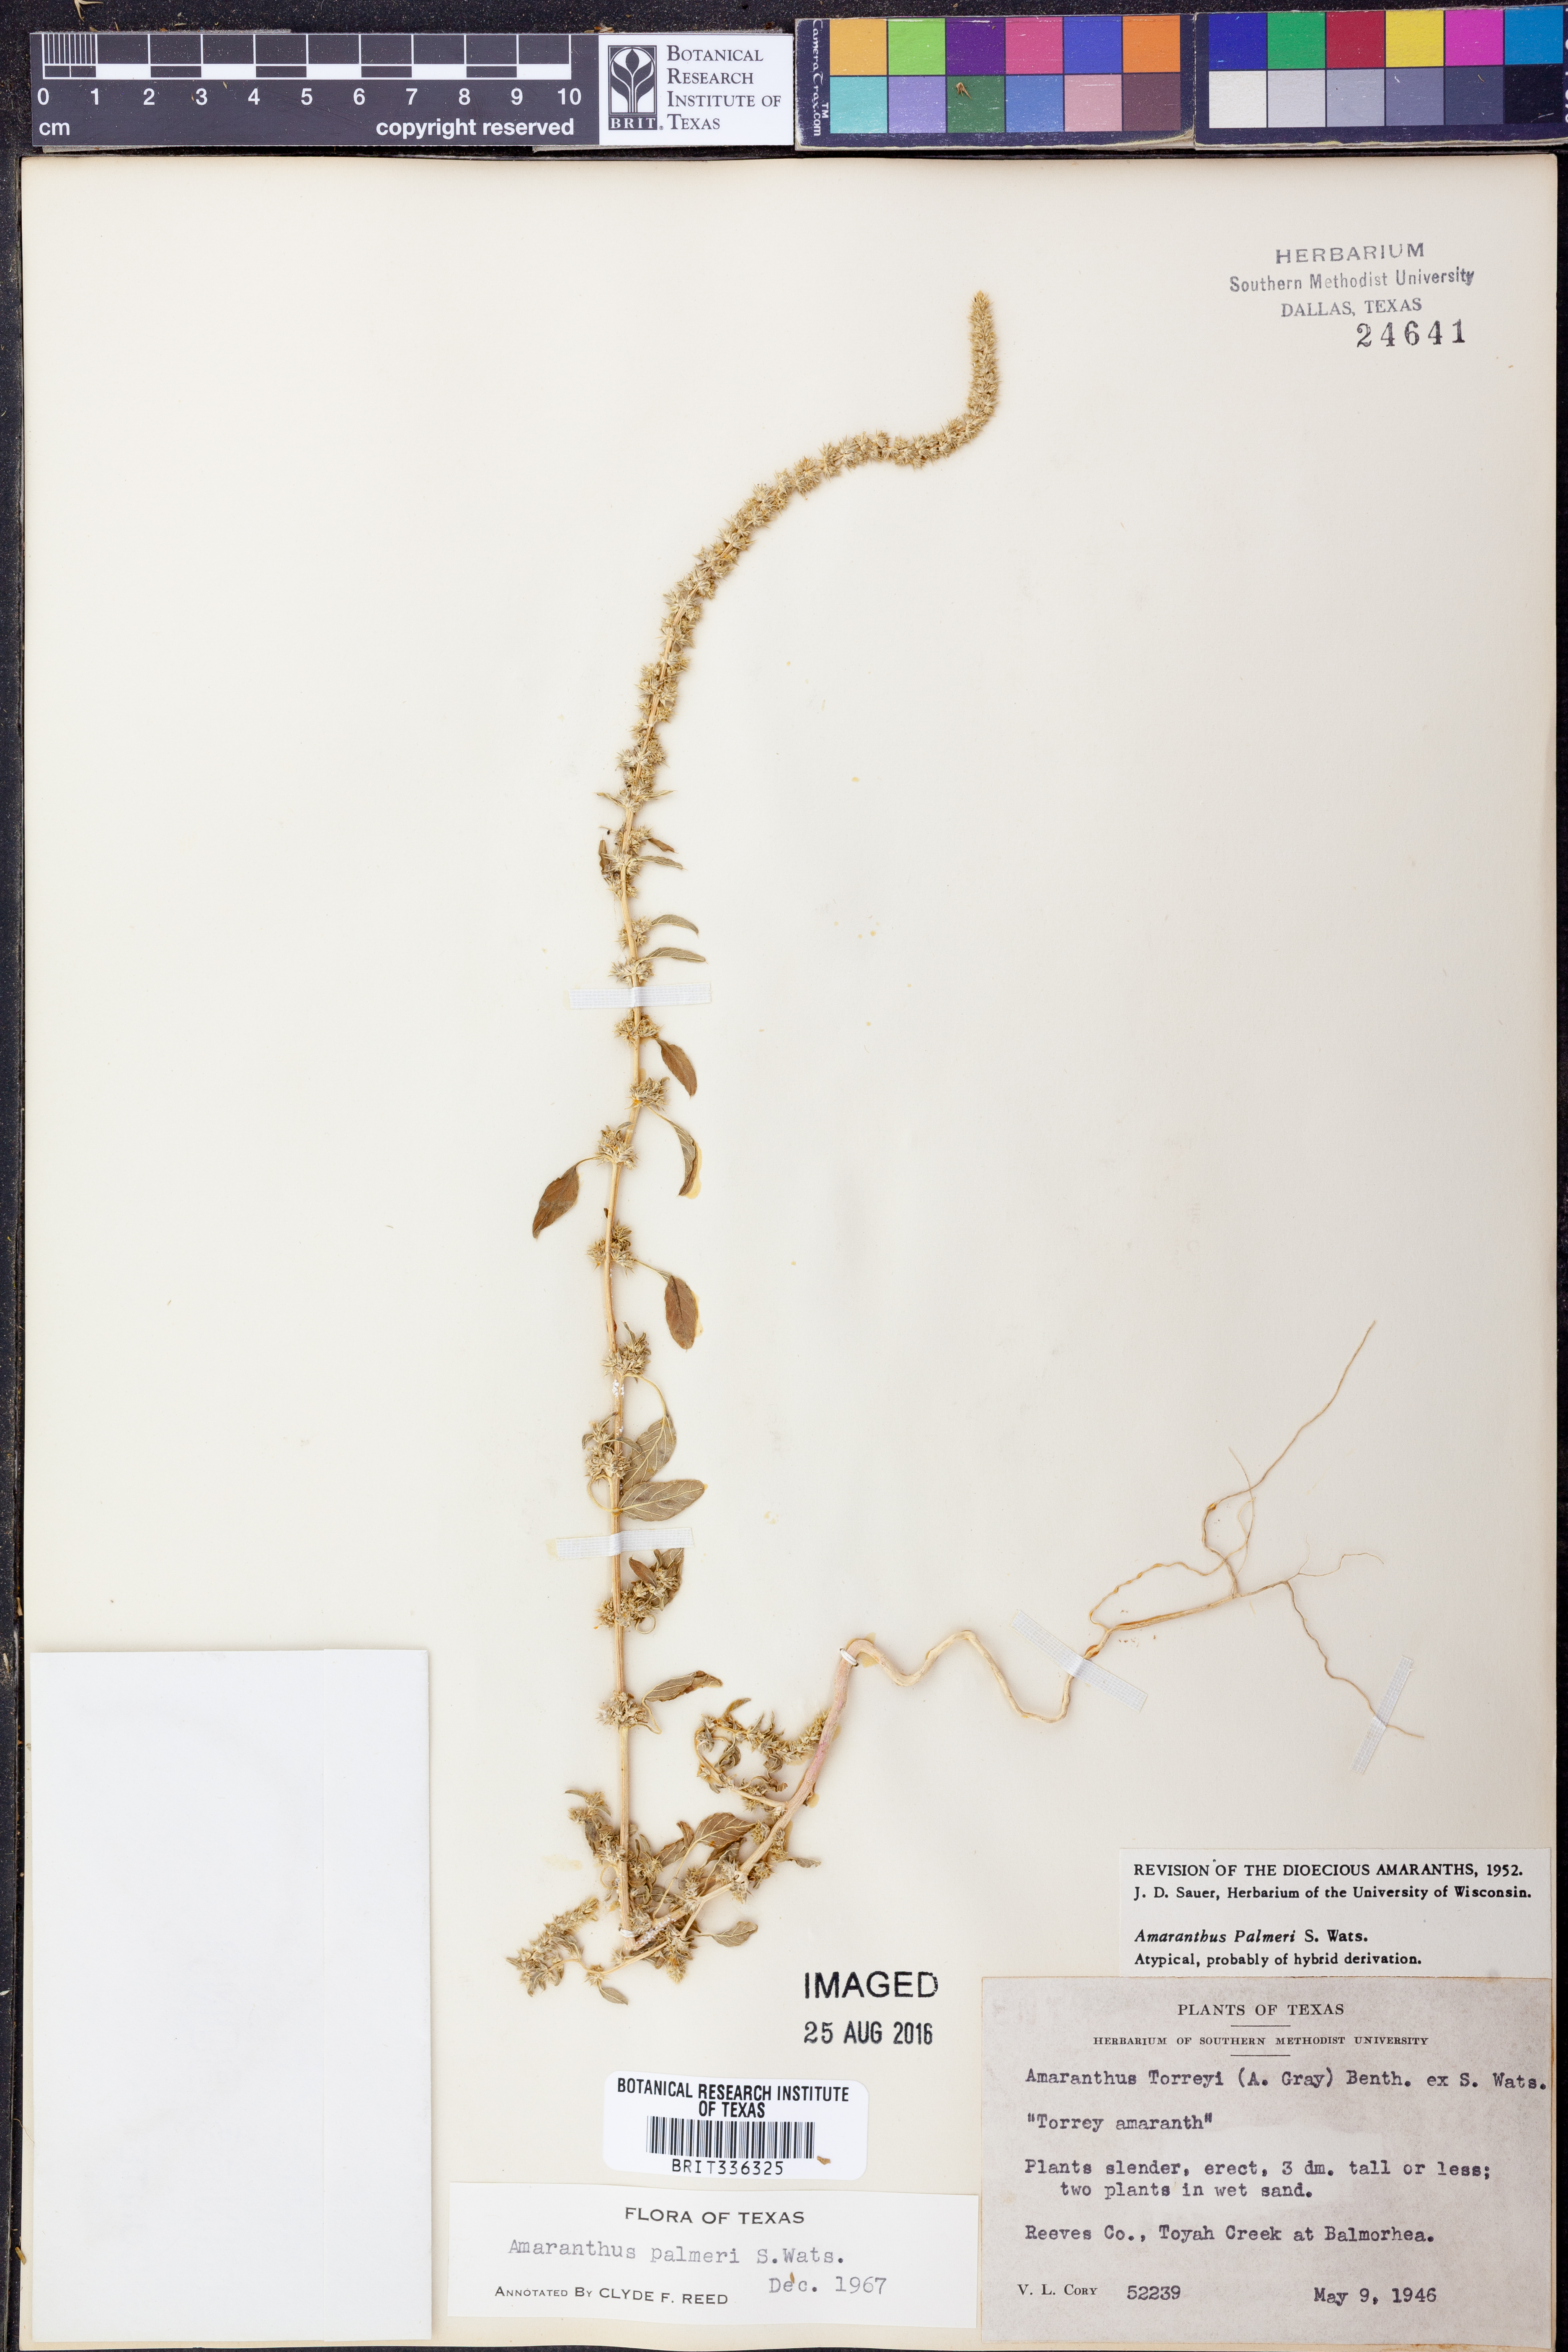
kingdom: Plantae
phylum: Tracheophyta
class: Magnoliopsida
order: Caryophyllales
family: Amaranthaceae
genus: Amaranthus
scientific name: Amaranthus palmeri
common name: Dioecious amaranth
